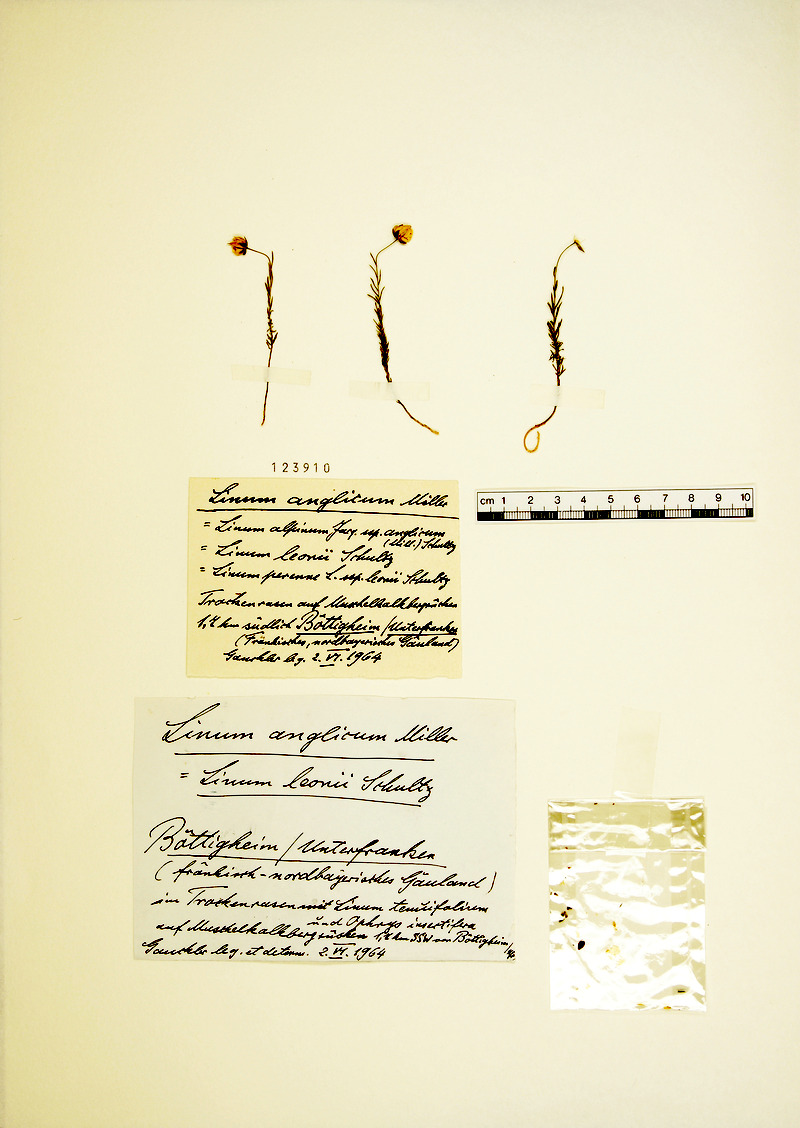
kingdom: Plantae
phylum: Tracheophyta
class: Magnoliopsida
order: Malpighiales
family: Linaceae
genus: Linum
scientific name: Linum leonii
